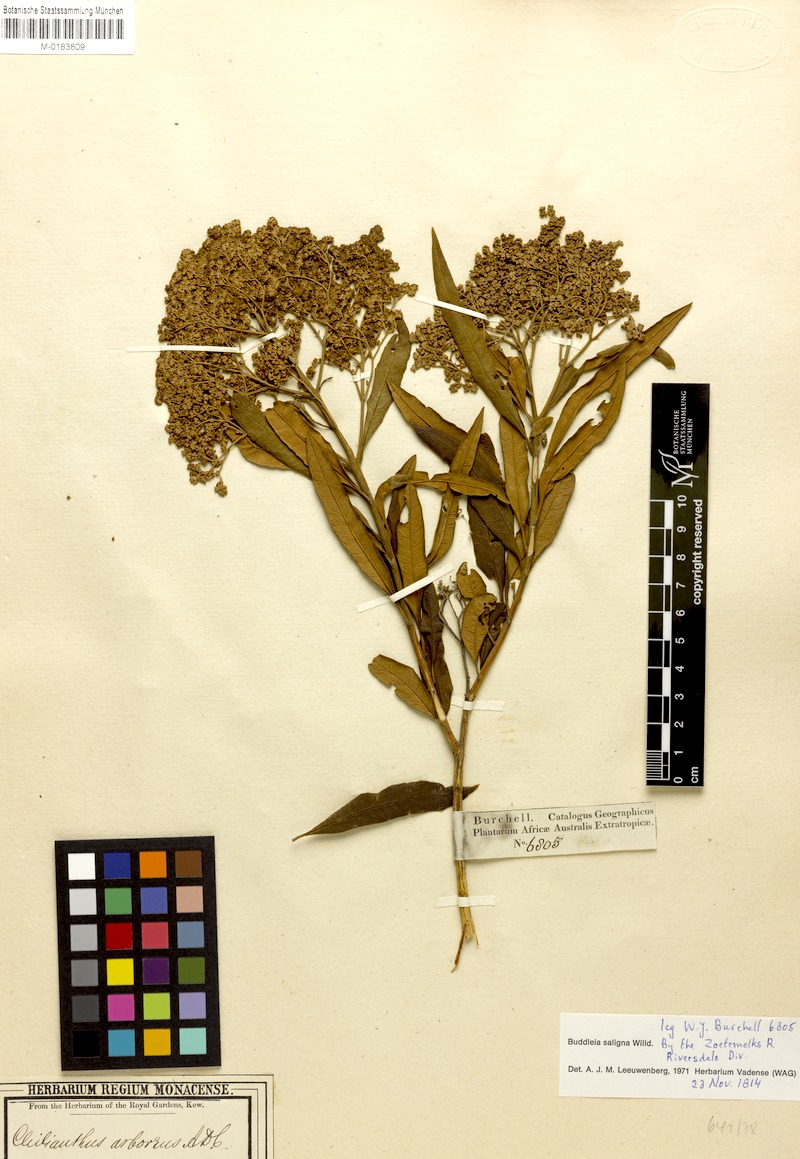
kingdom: Plantae
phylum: Tracheophyta
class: Magnoliopsida
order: Lamiales
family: Scrophulariaceae
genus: Buddleja
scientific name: Buddleja saligna
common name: False olive
